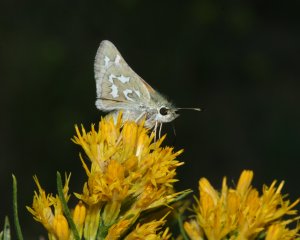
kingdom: Animalia
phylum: Arthropoda
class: Insecta
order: Lepidoptera
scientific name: Lepidoptera
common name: Butterflies
